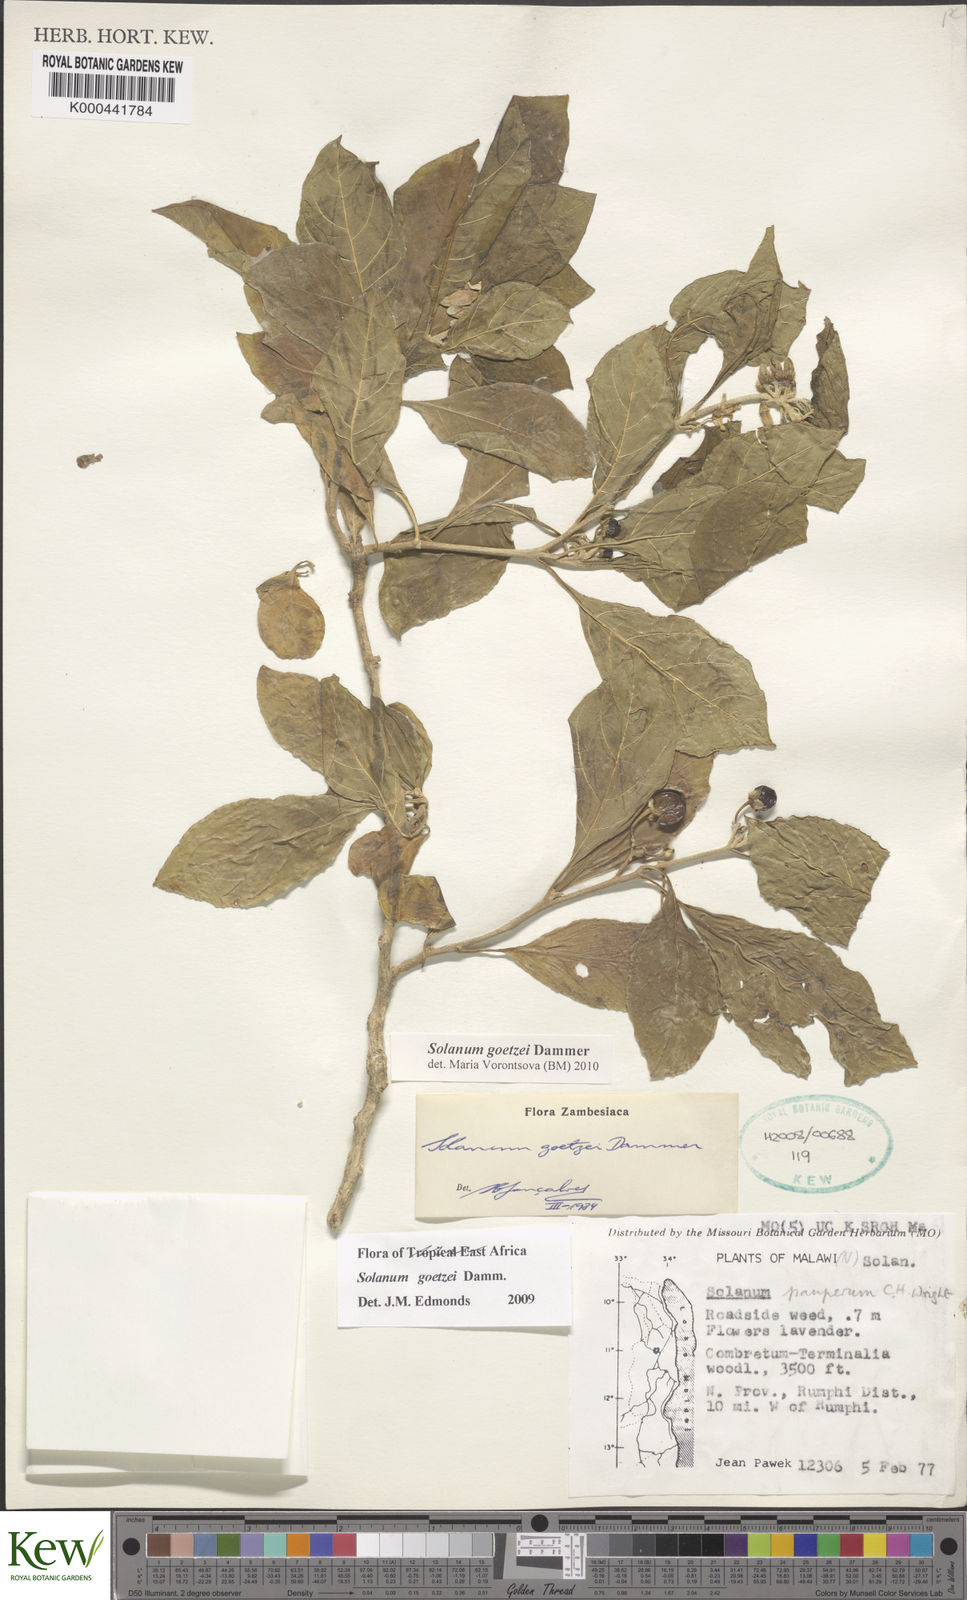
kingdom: Plantae
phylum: Tracheophyta
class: Magnoliopsida
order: Solanales
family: Solanaceae
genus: Solanum
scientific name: Solanum goetzei
